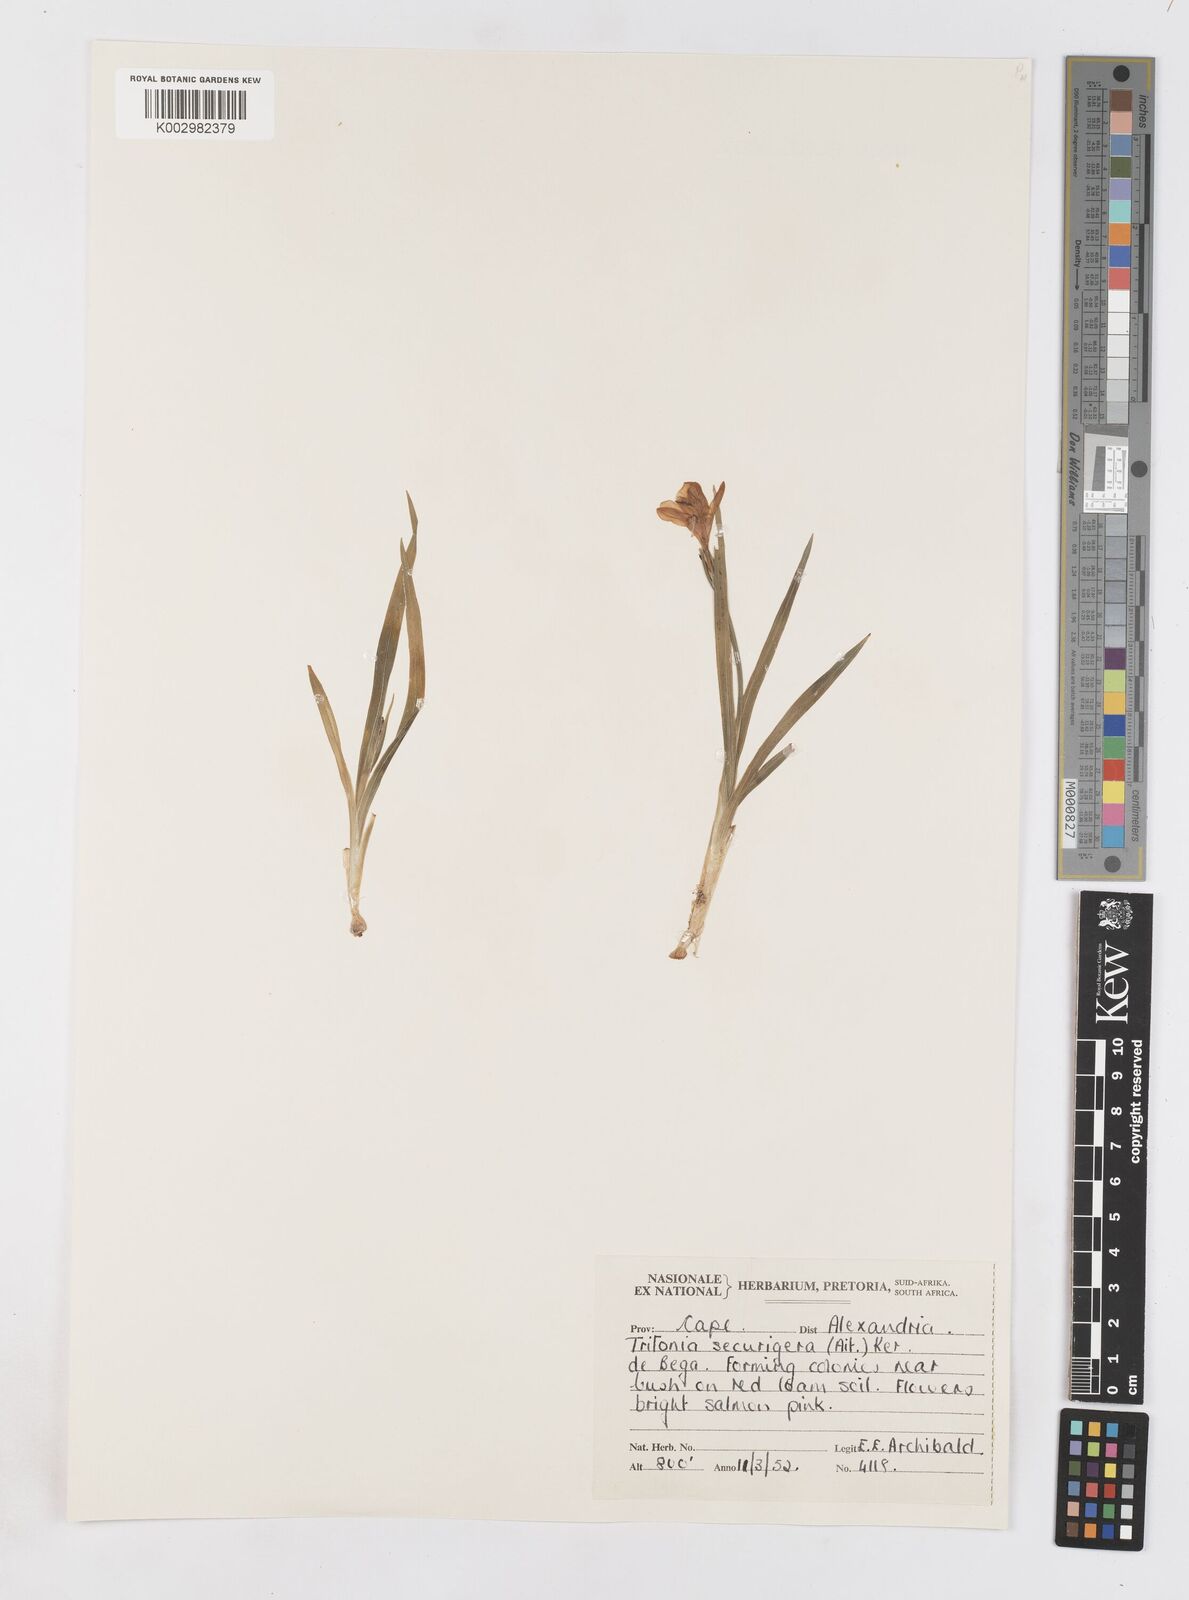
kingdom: Plantae
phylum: Tracheophyta
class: Liliopsida
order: Asparagales
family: Iridaceae
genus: Tritonia
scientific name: Tritonia securigera
